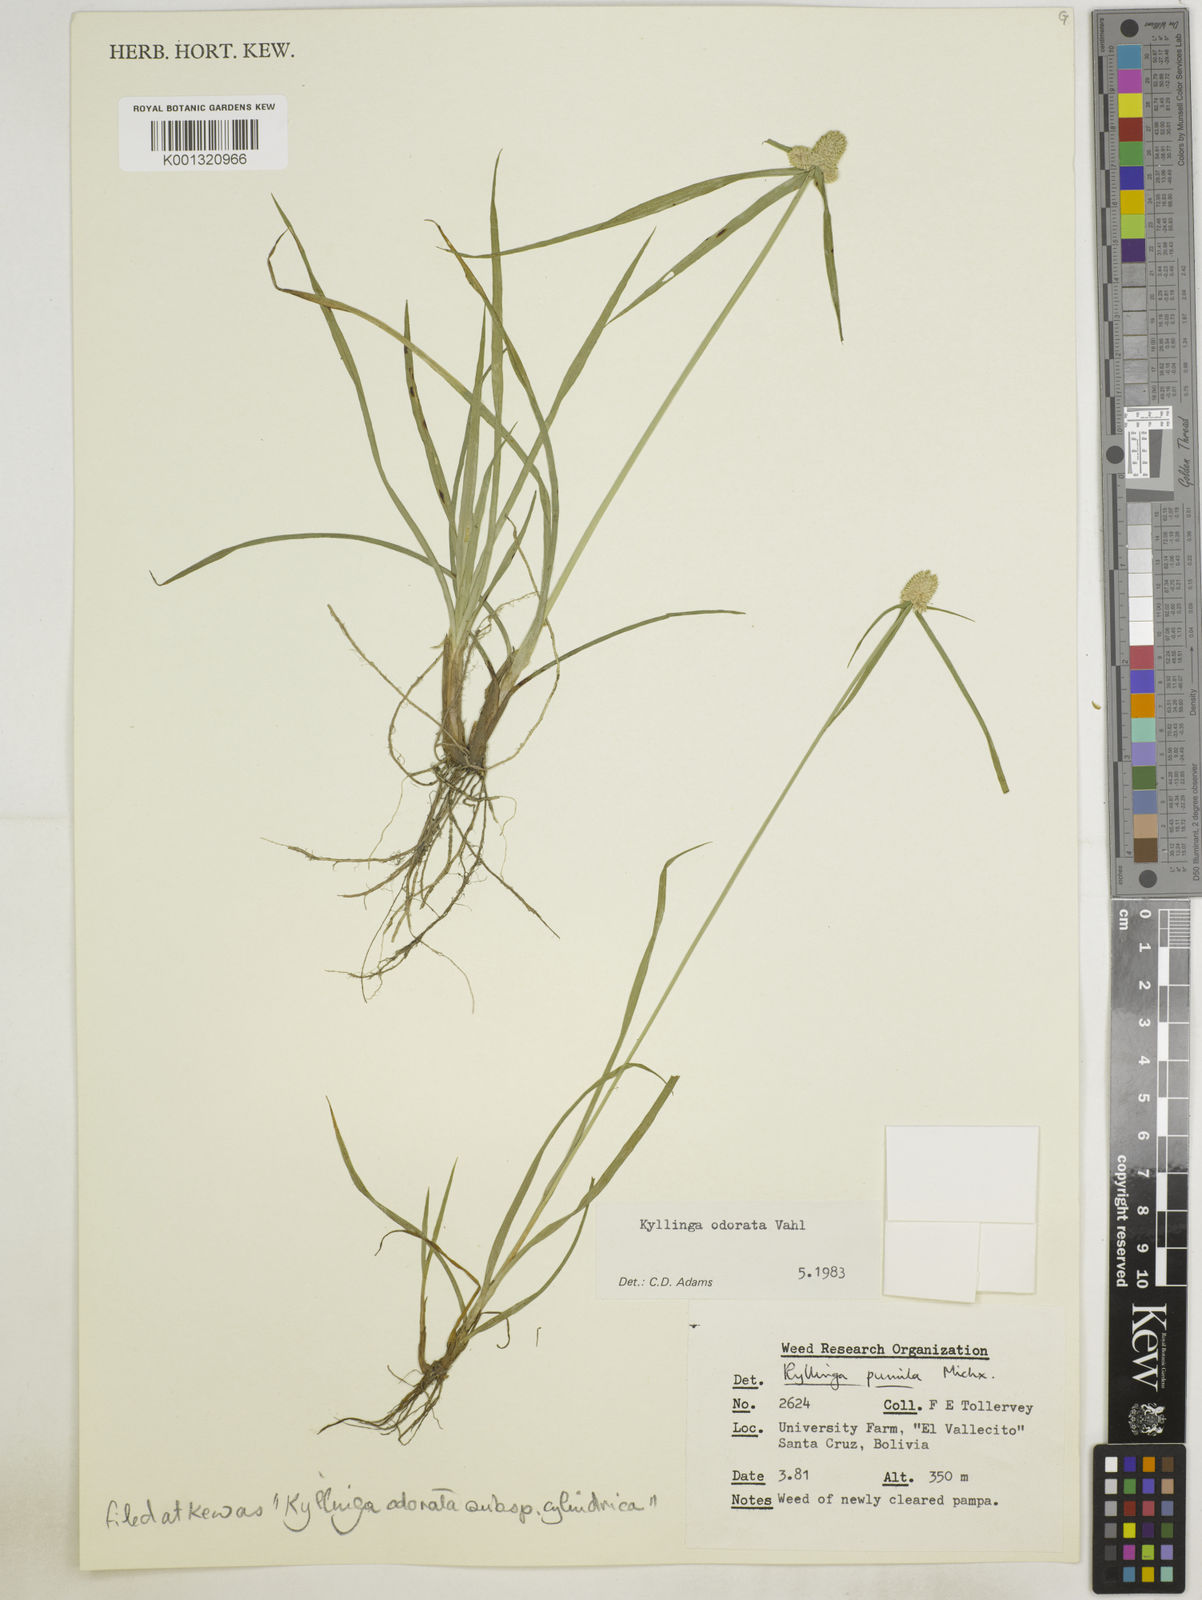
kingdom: Plantae
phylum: Tracheophyta
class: Liliopsida
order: Poales
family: Cyperaceae
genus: Cyperus
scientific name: Cyperus
